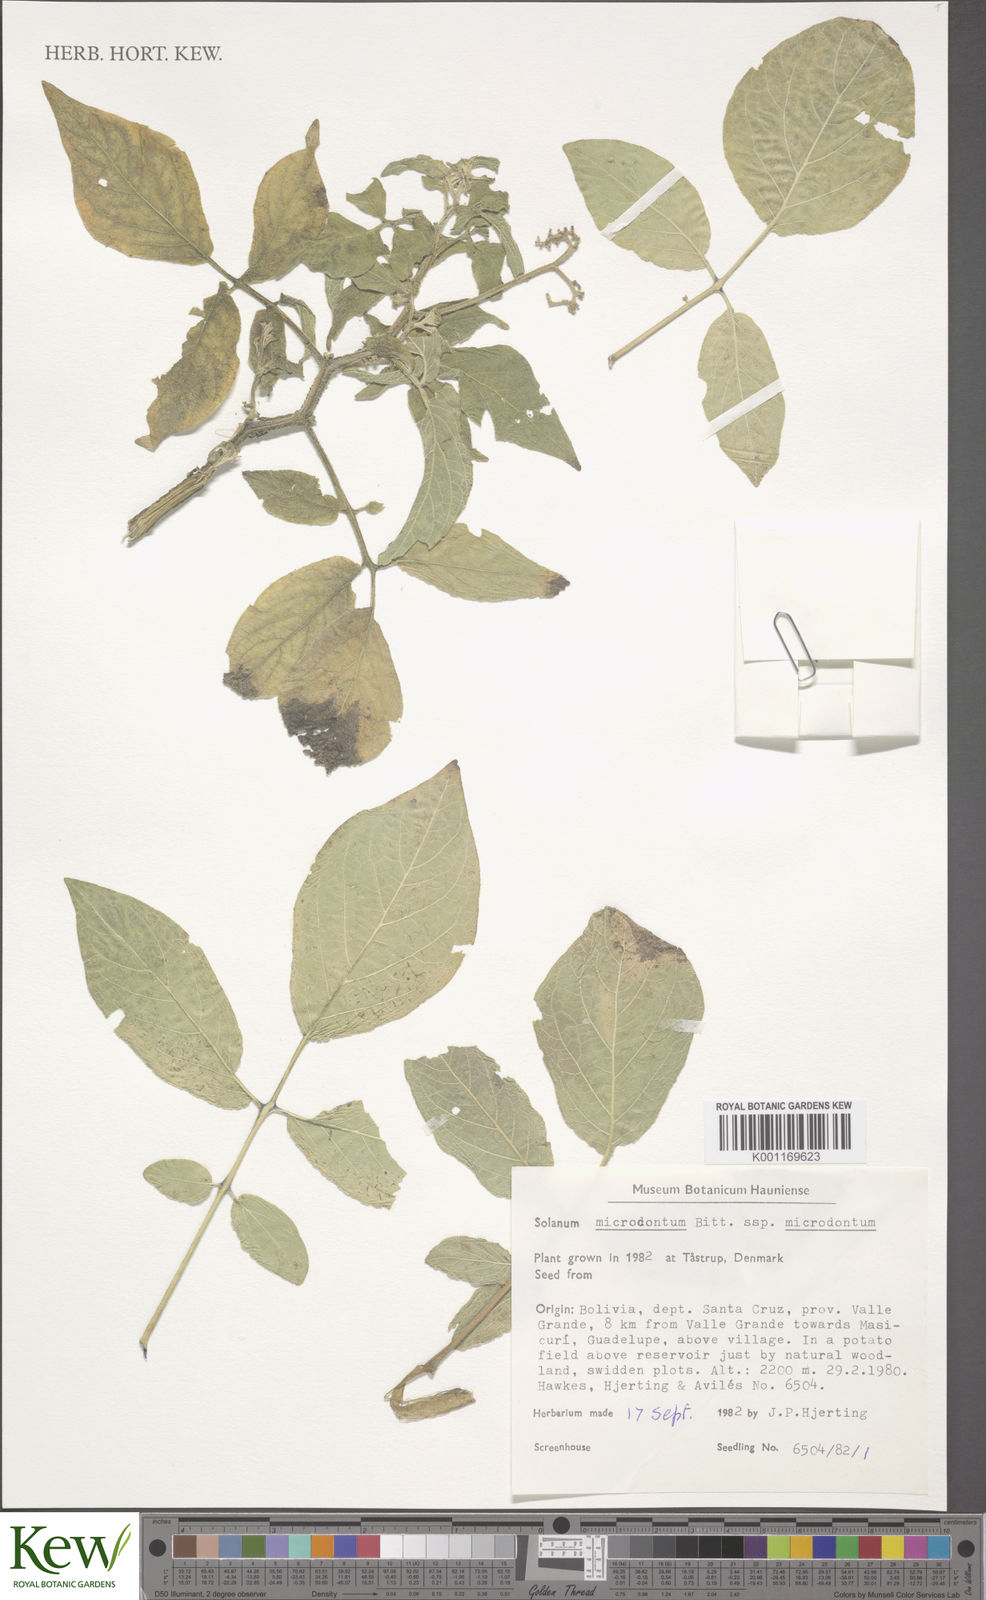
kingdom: Plantae
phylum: Tracheophyta
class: Magnoliopsida
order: Solanales
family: Solanaceae
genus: Solanum
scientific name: Solanum microdontum
